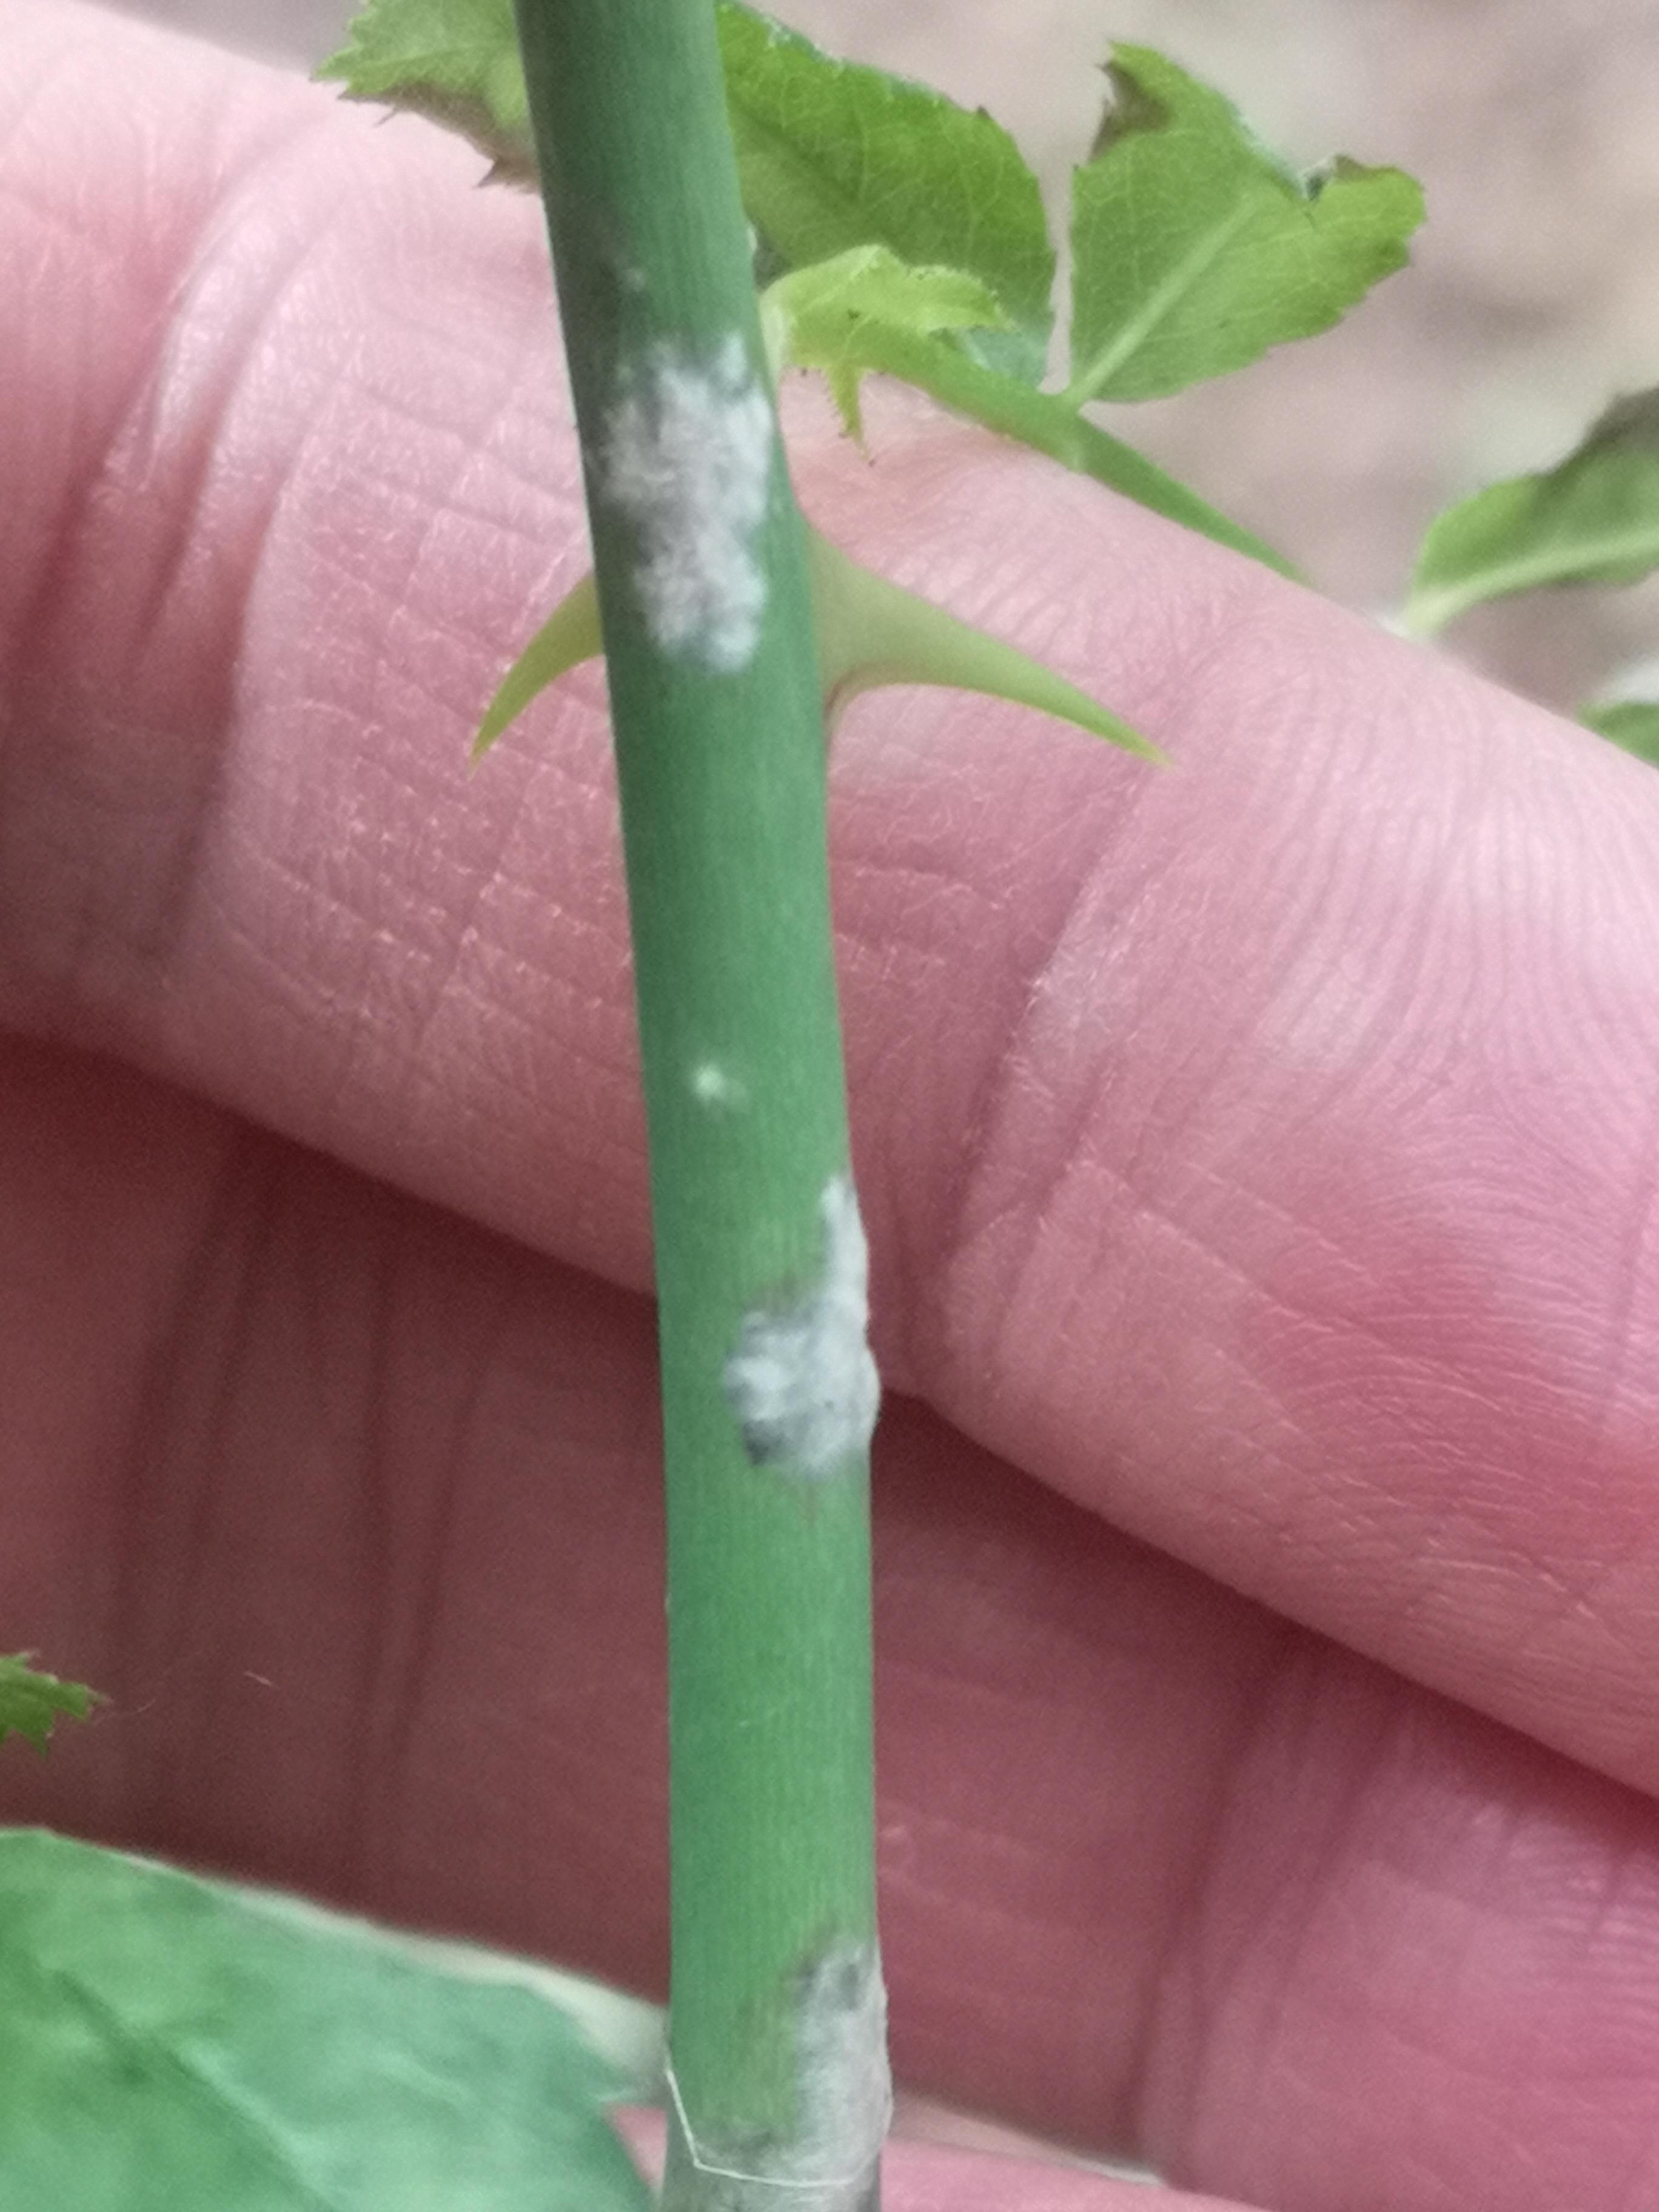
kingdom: Fungi
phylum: Ascomycota
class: Leotiomycetes
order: Helotiales
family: Erysiphaceae
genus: Podosphaera
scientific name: Podosphaera pannosa
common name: Rose mildew
